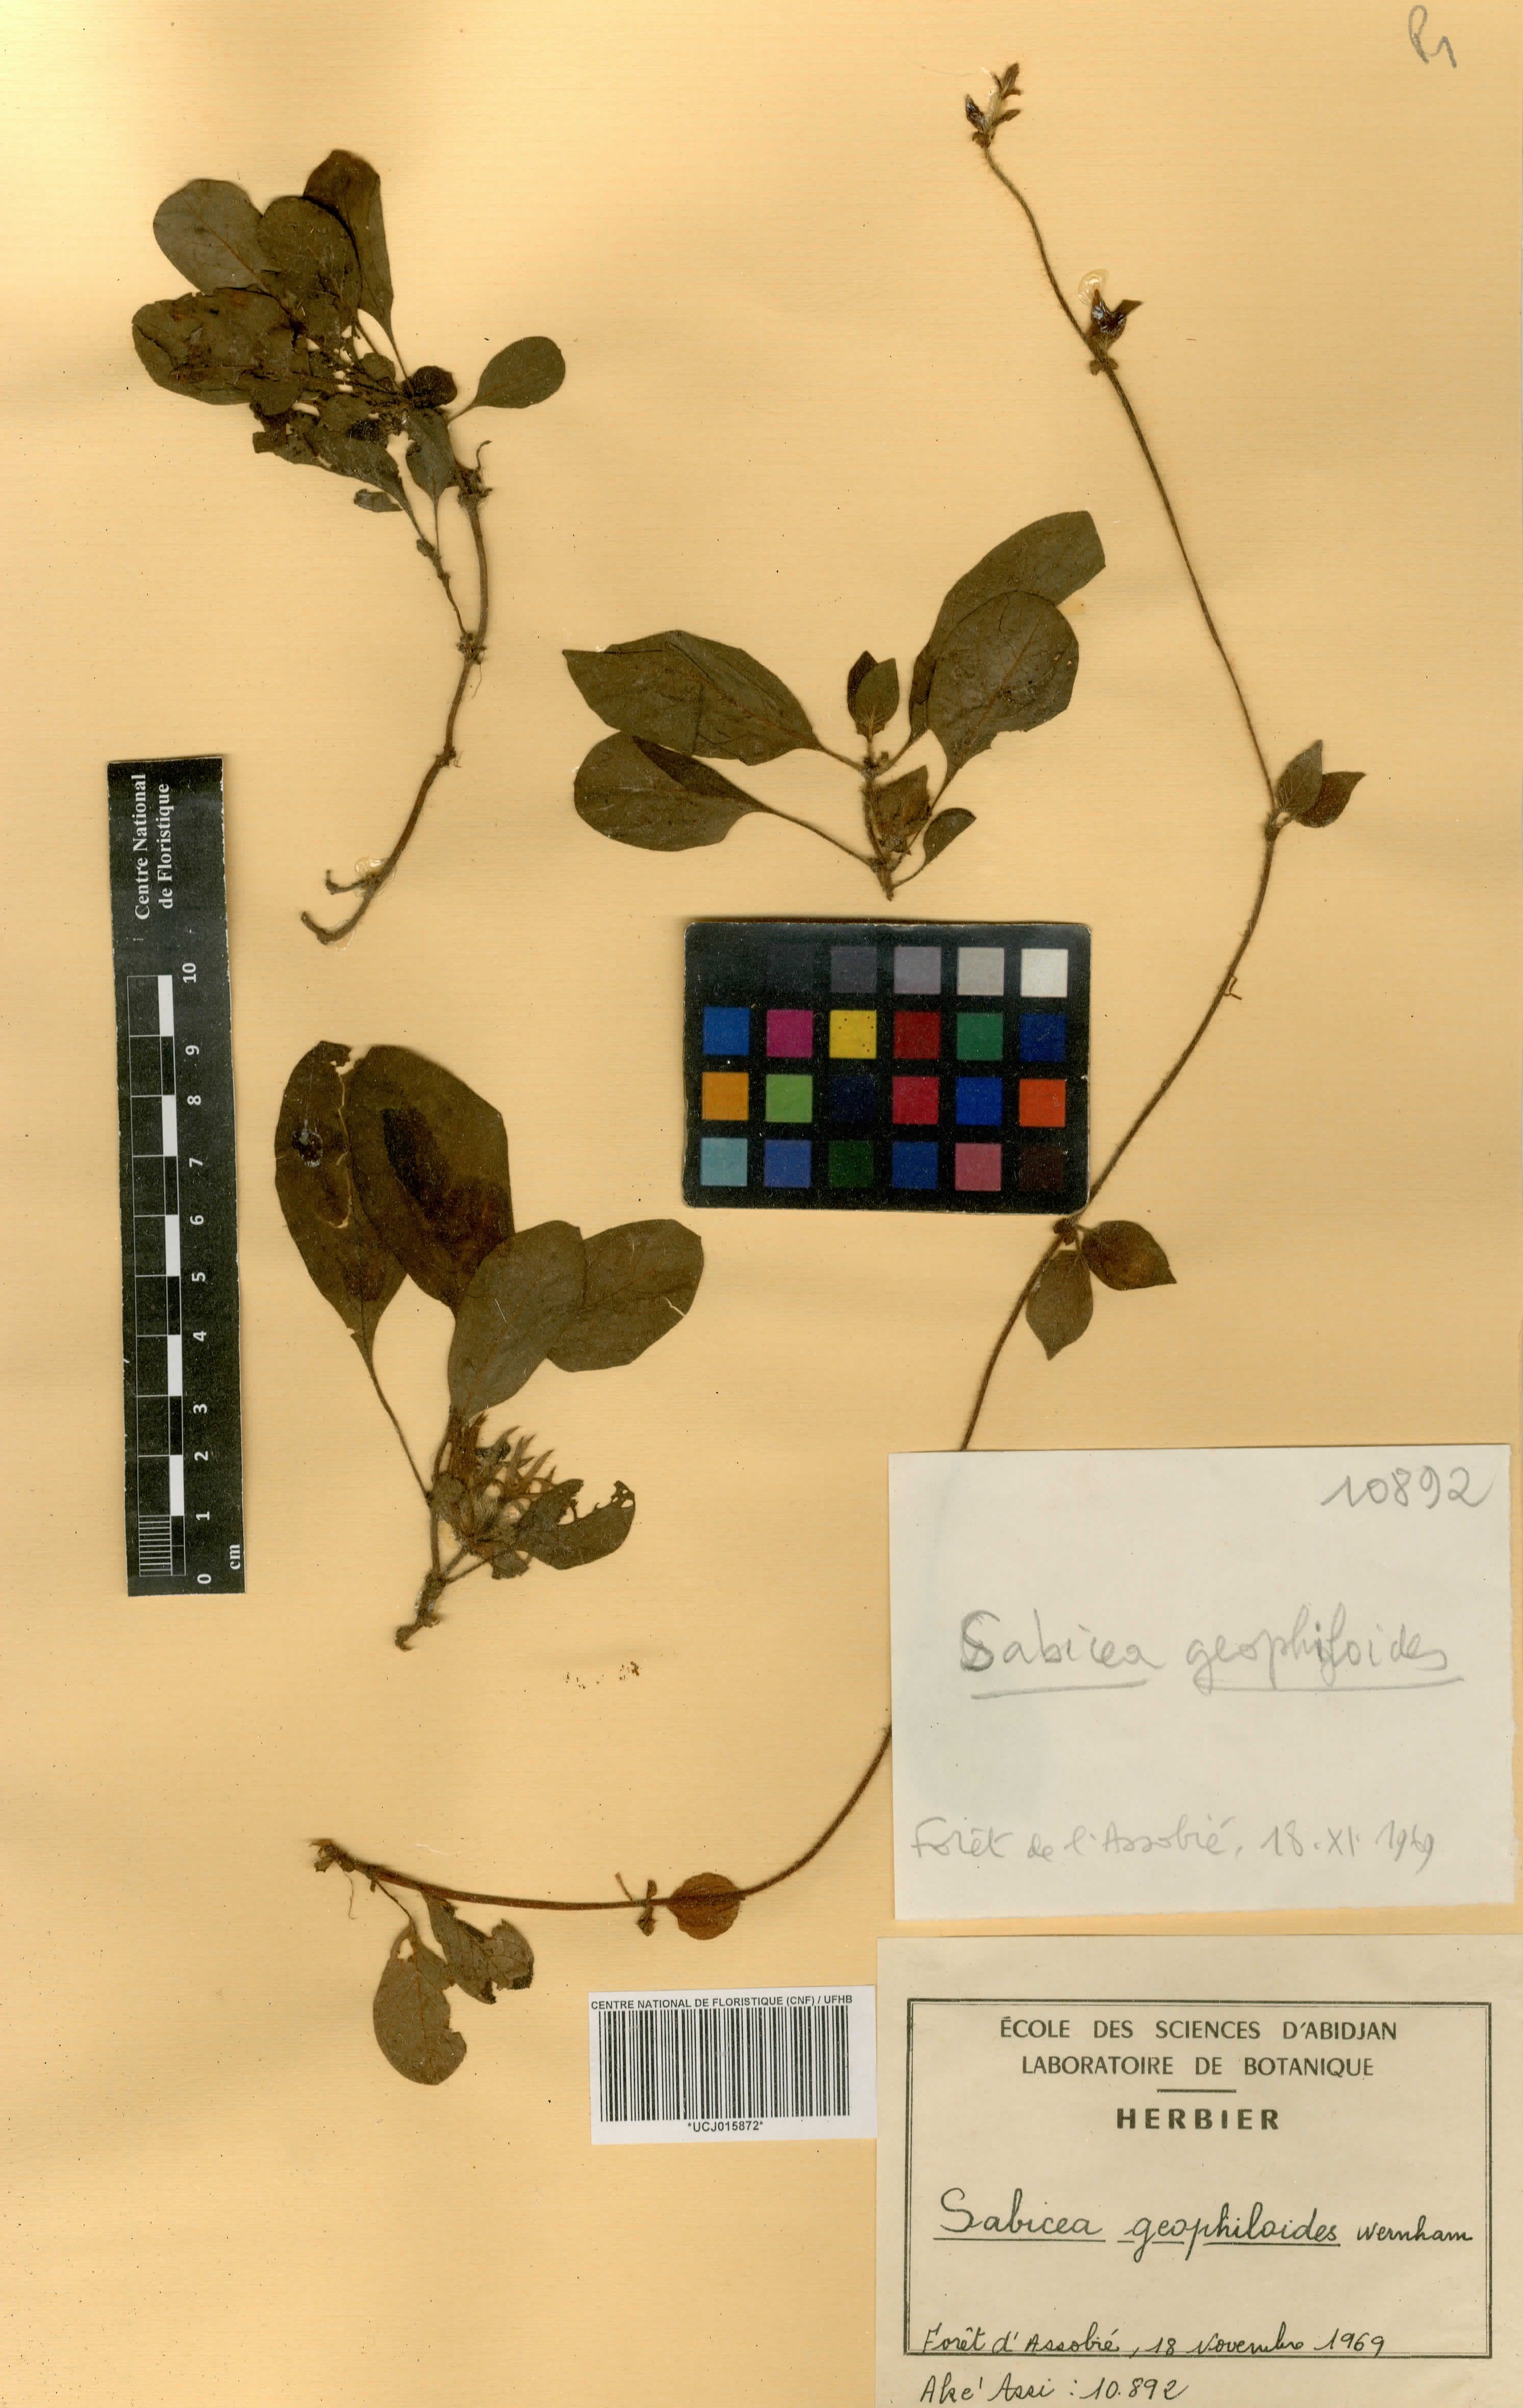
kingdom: Plantae
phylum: Tracheophyta
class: Magnoliopsida
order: Gentianales
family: Rubiaceae
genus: Sabicea
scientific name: Sabicea geophiloides
